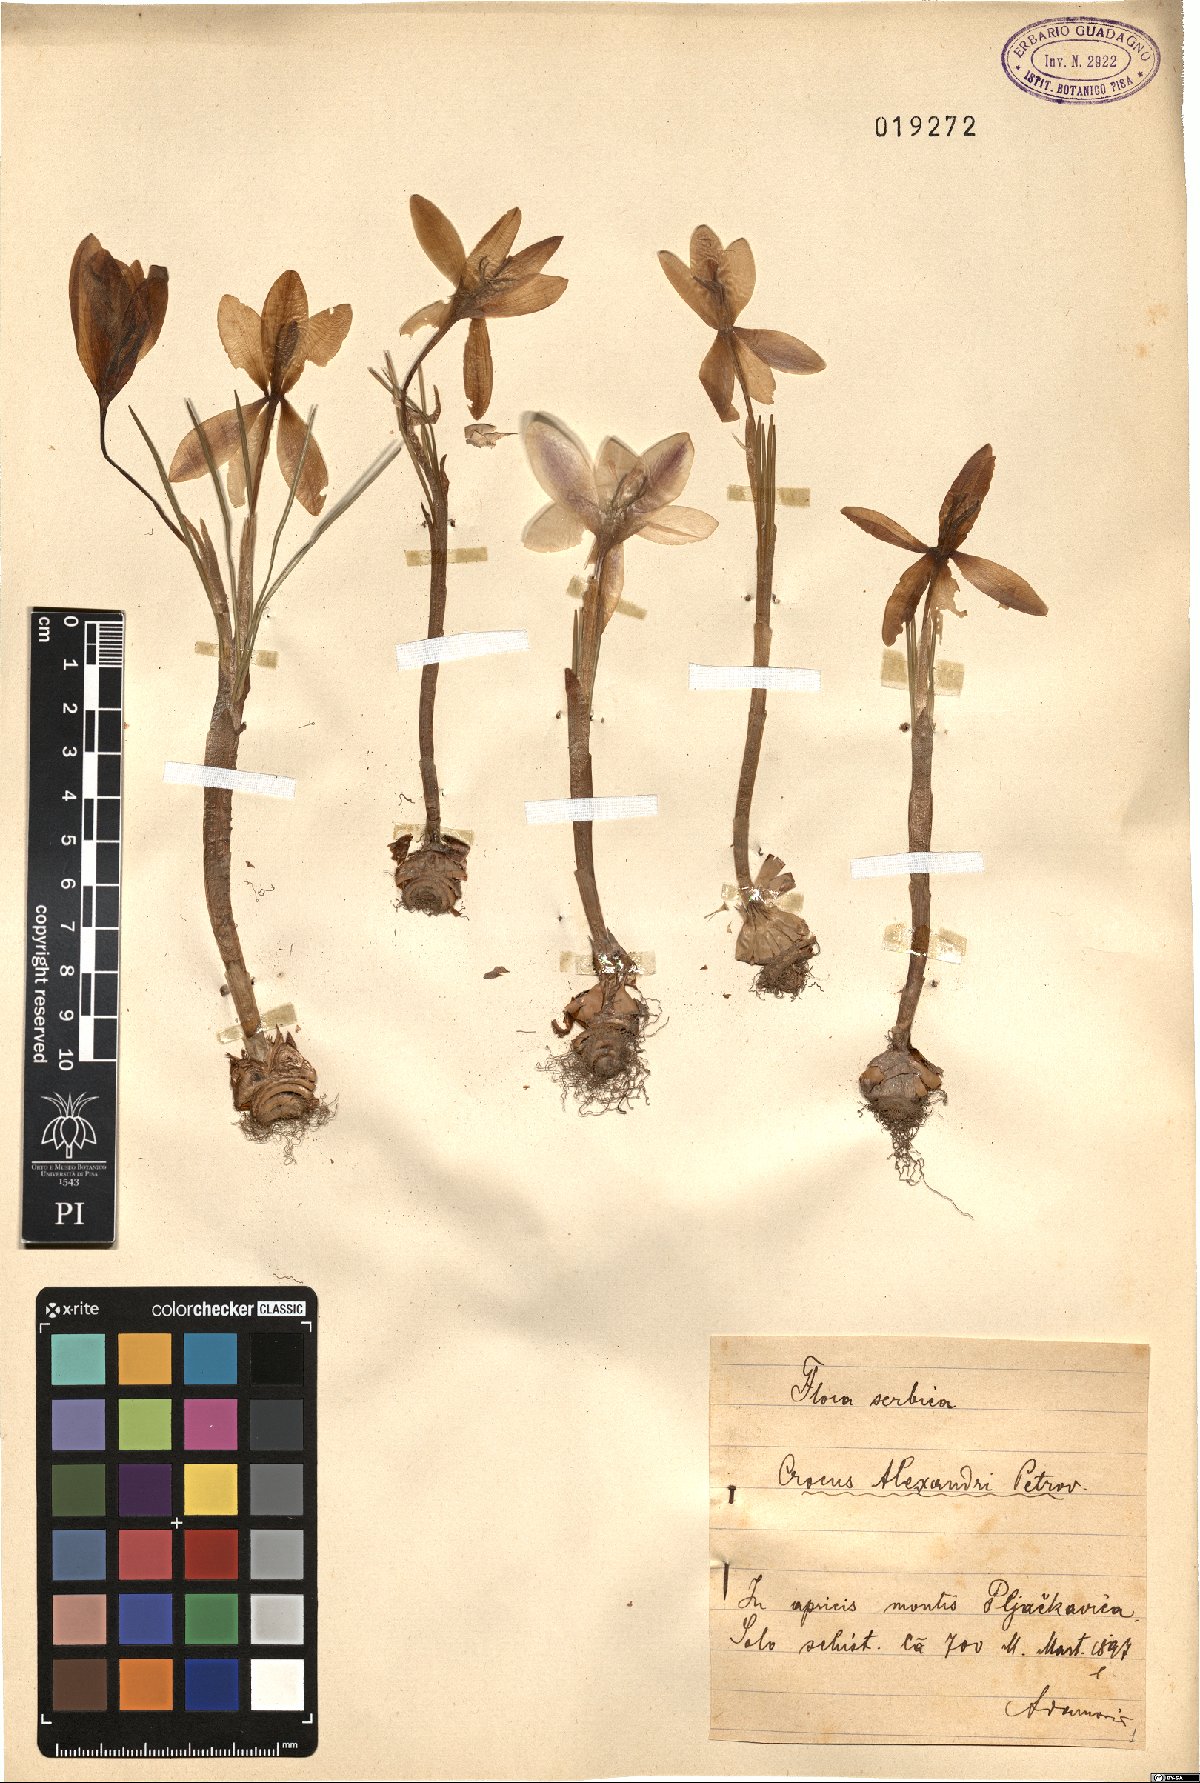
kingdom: Plantae
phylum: Tracheophyta
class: Liliopsida
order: Asparagales
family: Iridaceae
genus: Crocus
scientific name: Crocus alexandri
